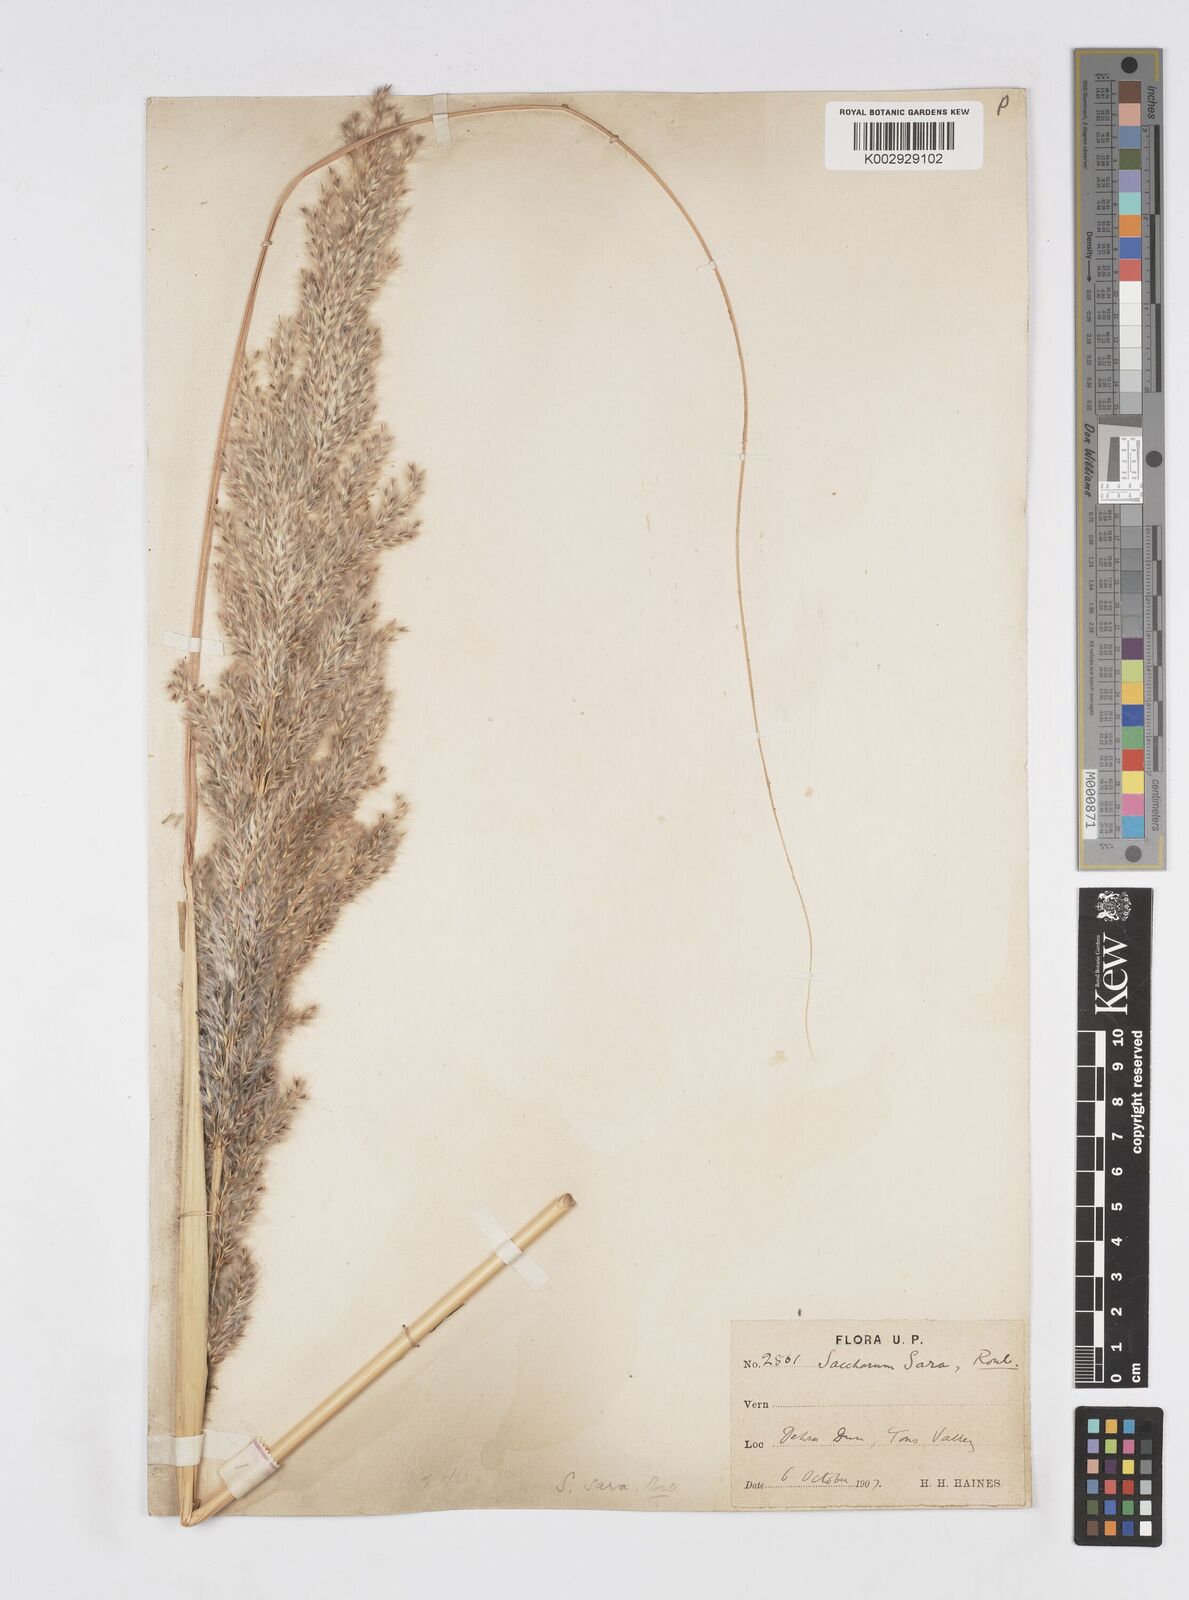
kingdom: Plantae
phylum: Tracheophyta
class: Liliopsida
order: Poales
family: Poaceae
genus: Tripidium
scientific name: Tripidium bengalense
